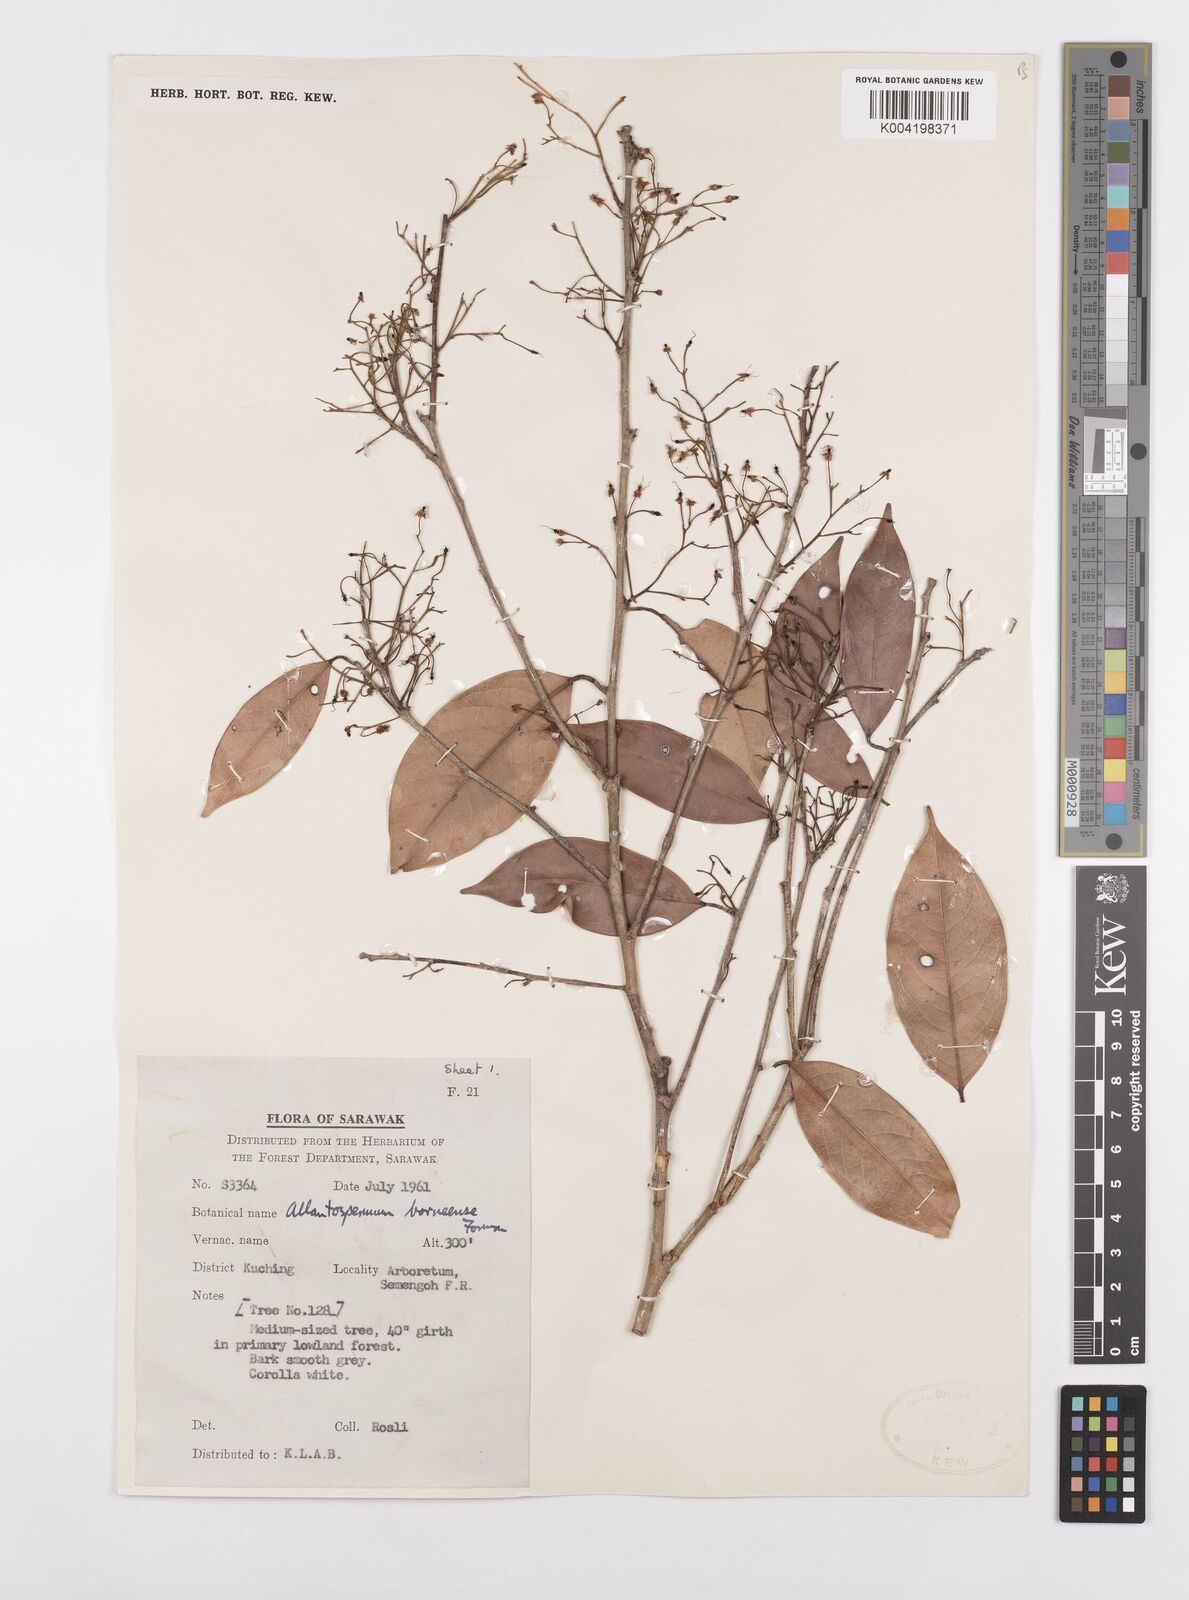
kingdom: Plantae
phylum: Tracheophyta
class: Magnoliopsida
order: Malpighiales
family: Ixonanthaceae
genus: Allantospermum
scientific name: Allantospermum borneense
